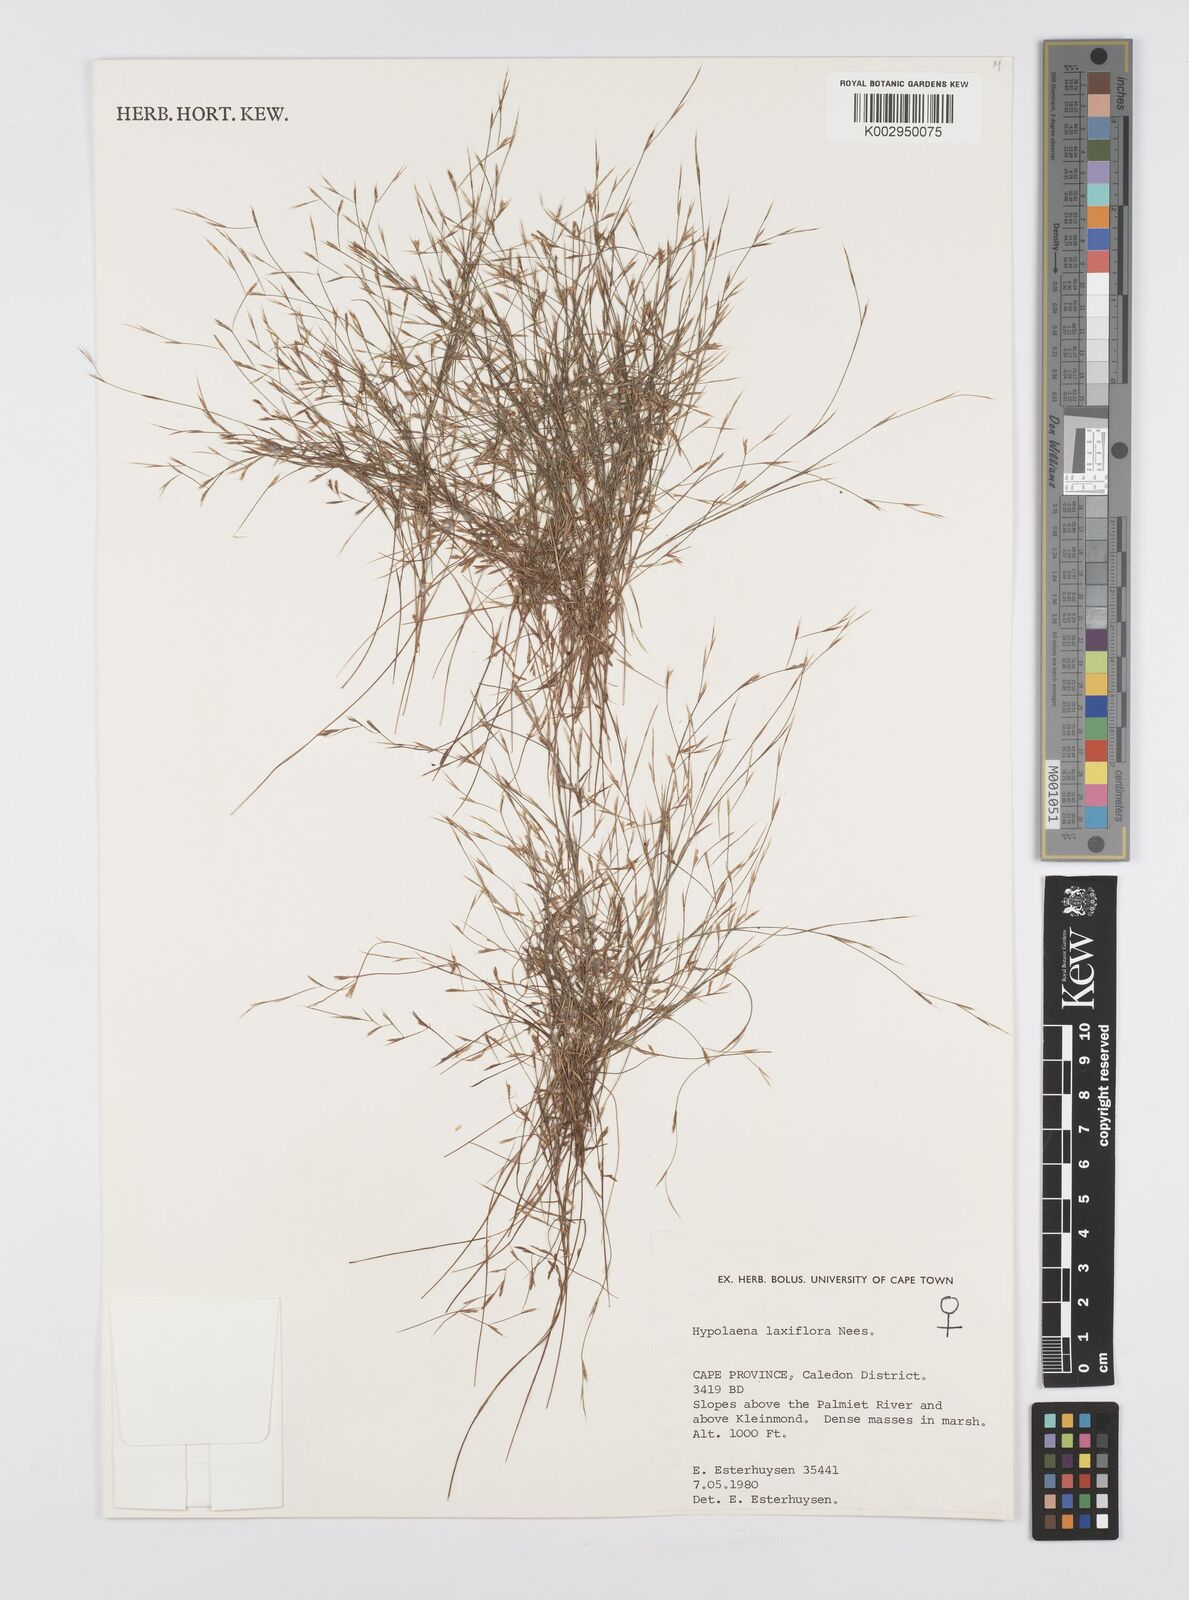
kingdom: Plantae
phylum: Tracheophyta
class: Liliopsida
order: Poales
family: Restionaceae
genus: Anthochortus
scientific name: Anthochortus laxiflorus
